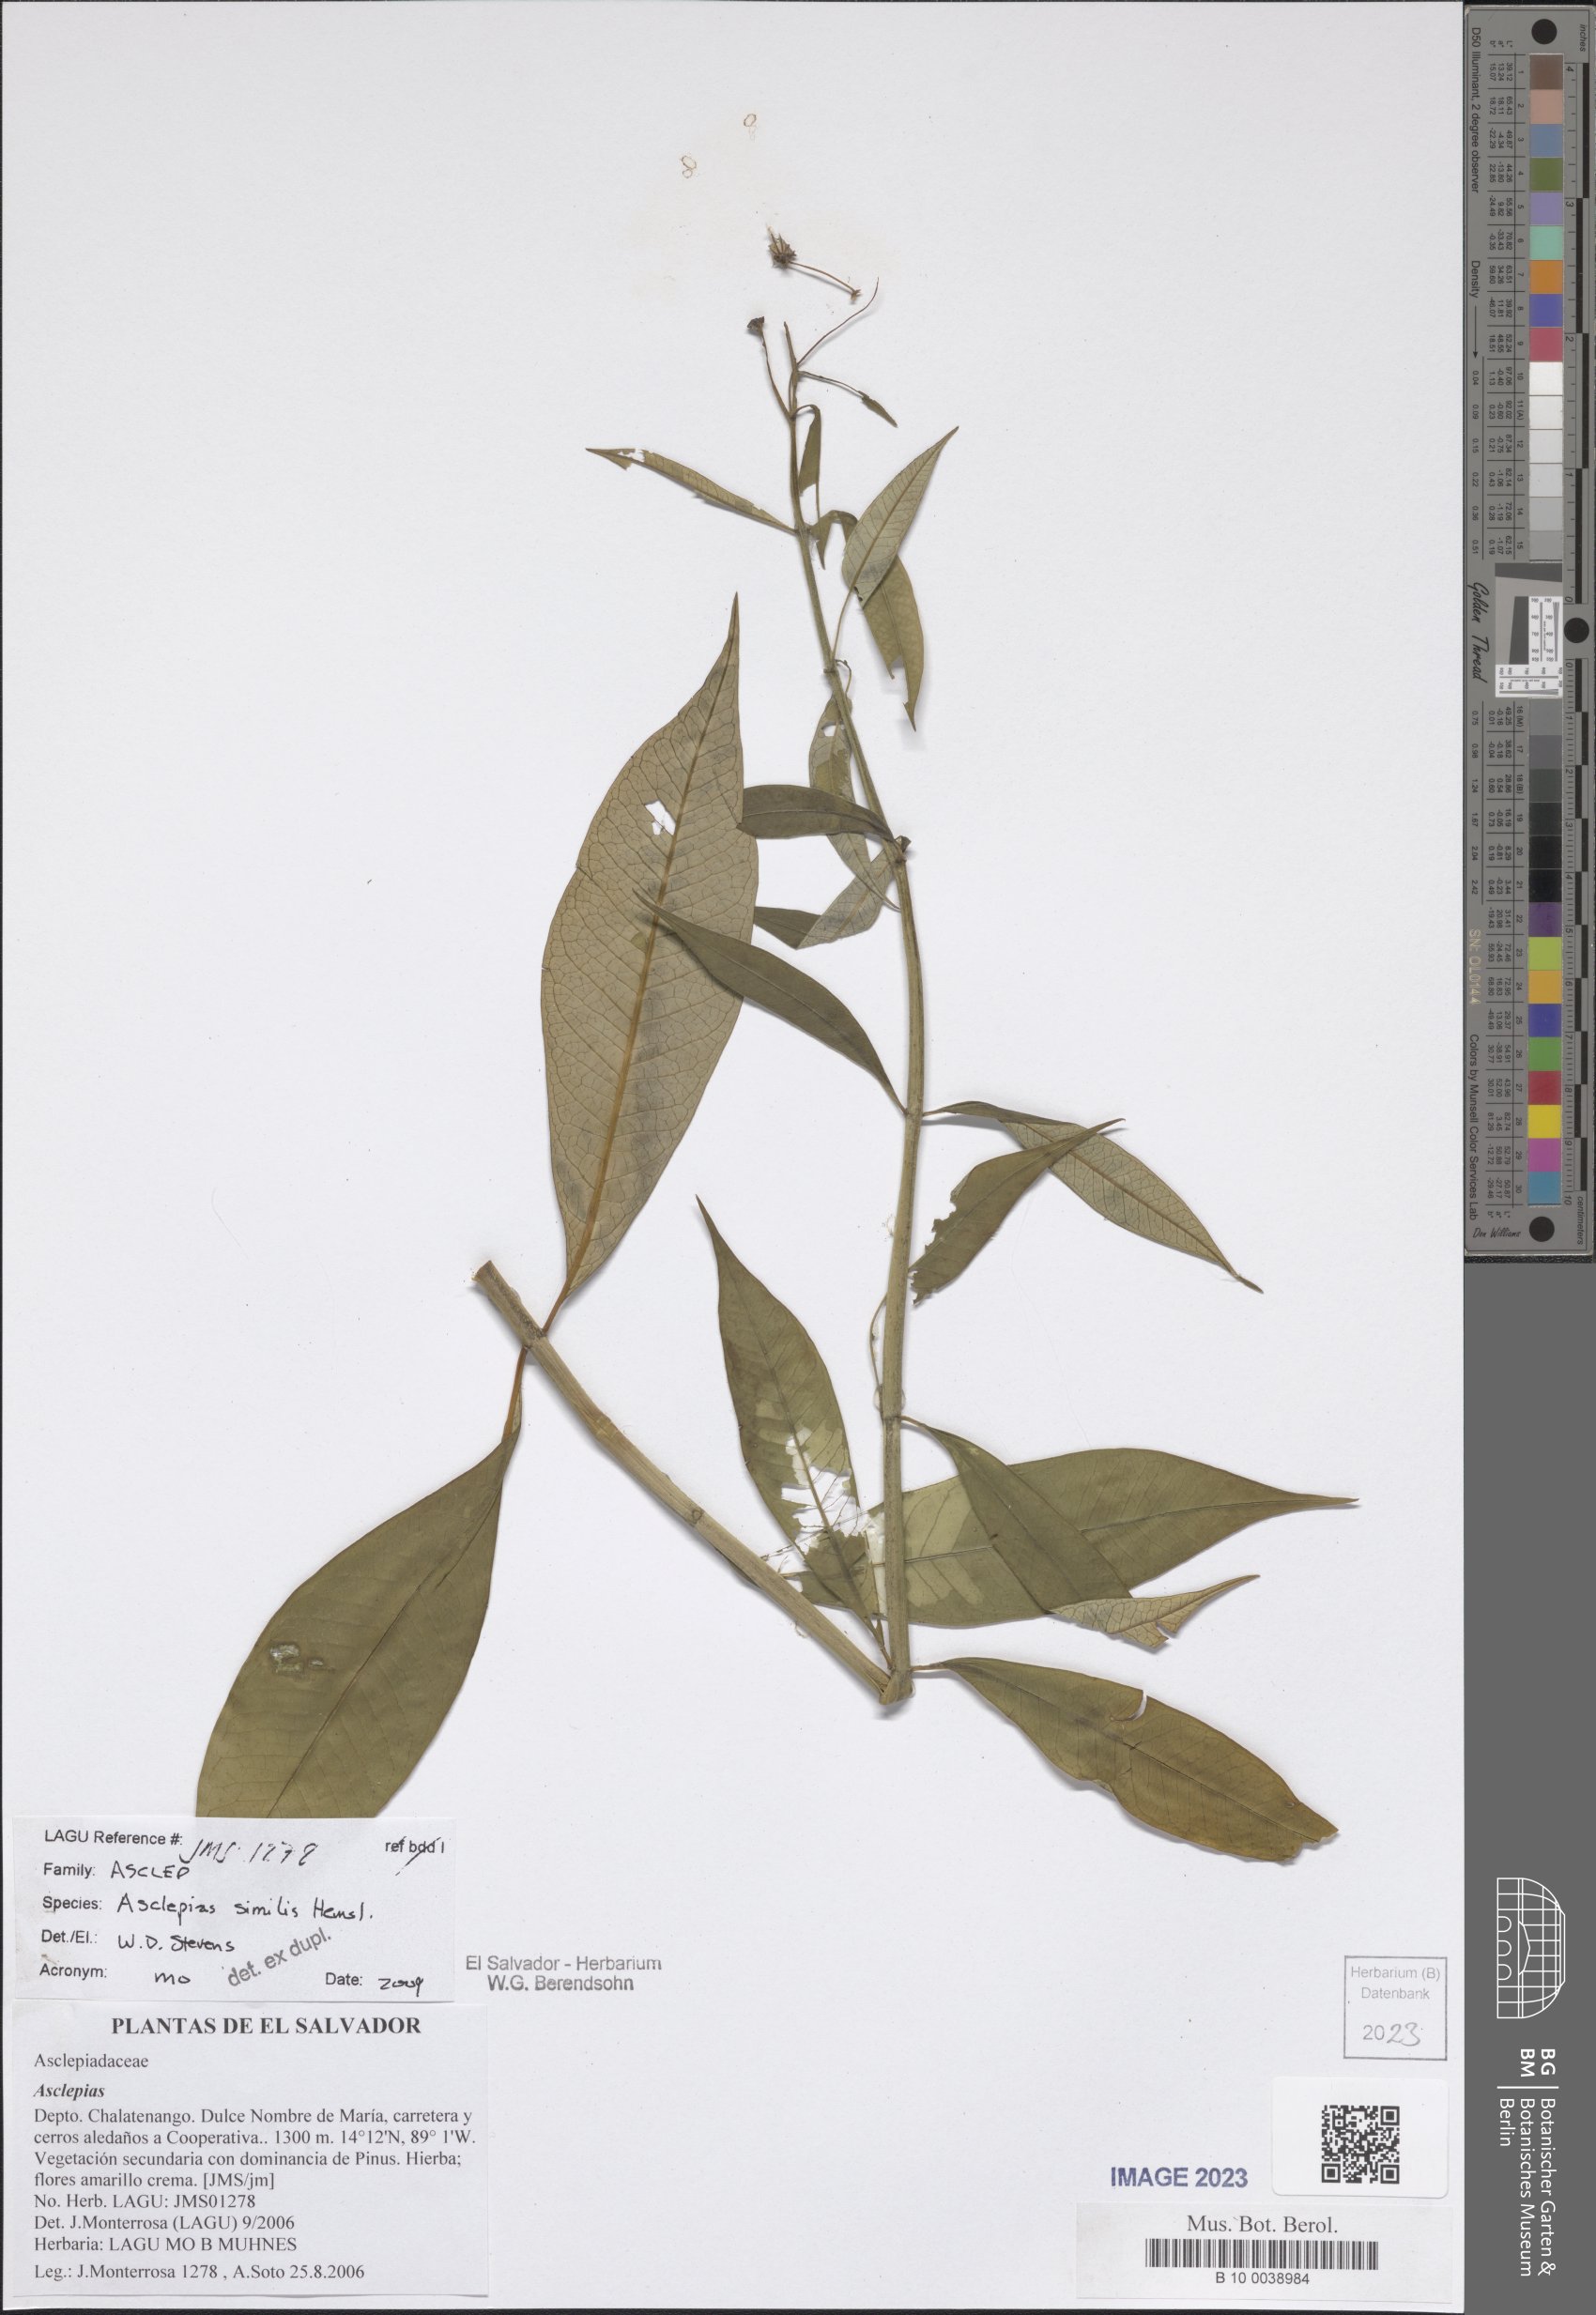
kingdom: Plantae
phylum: Tracheophyta
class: Magnoliopsida
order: Gentianales
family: Apocynaceae
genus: Asclepias
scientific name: Asclepias similis
